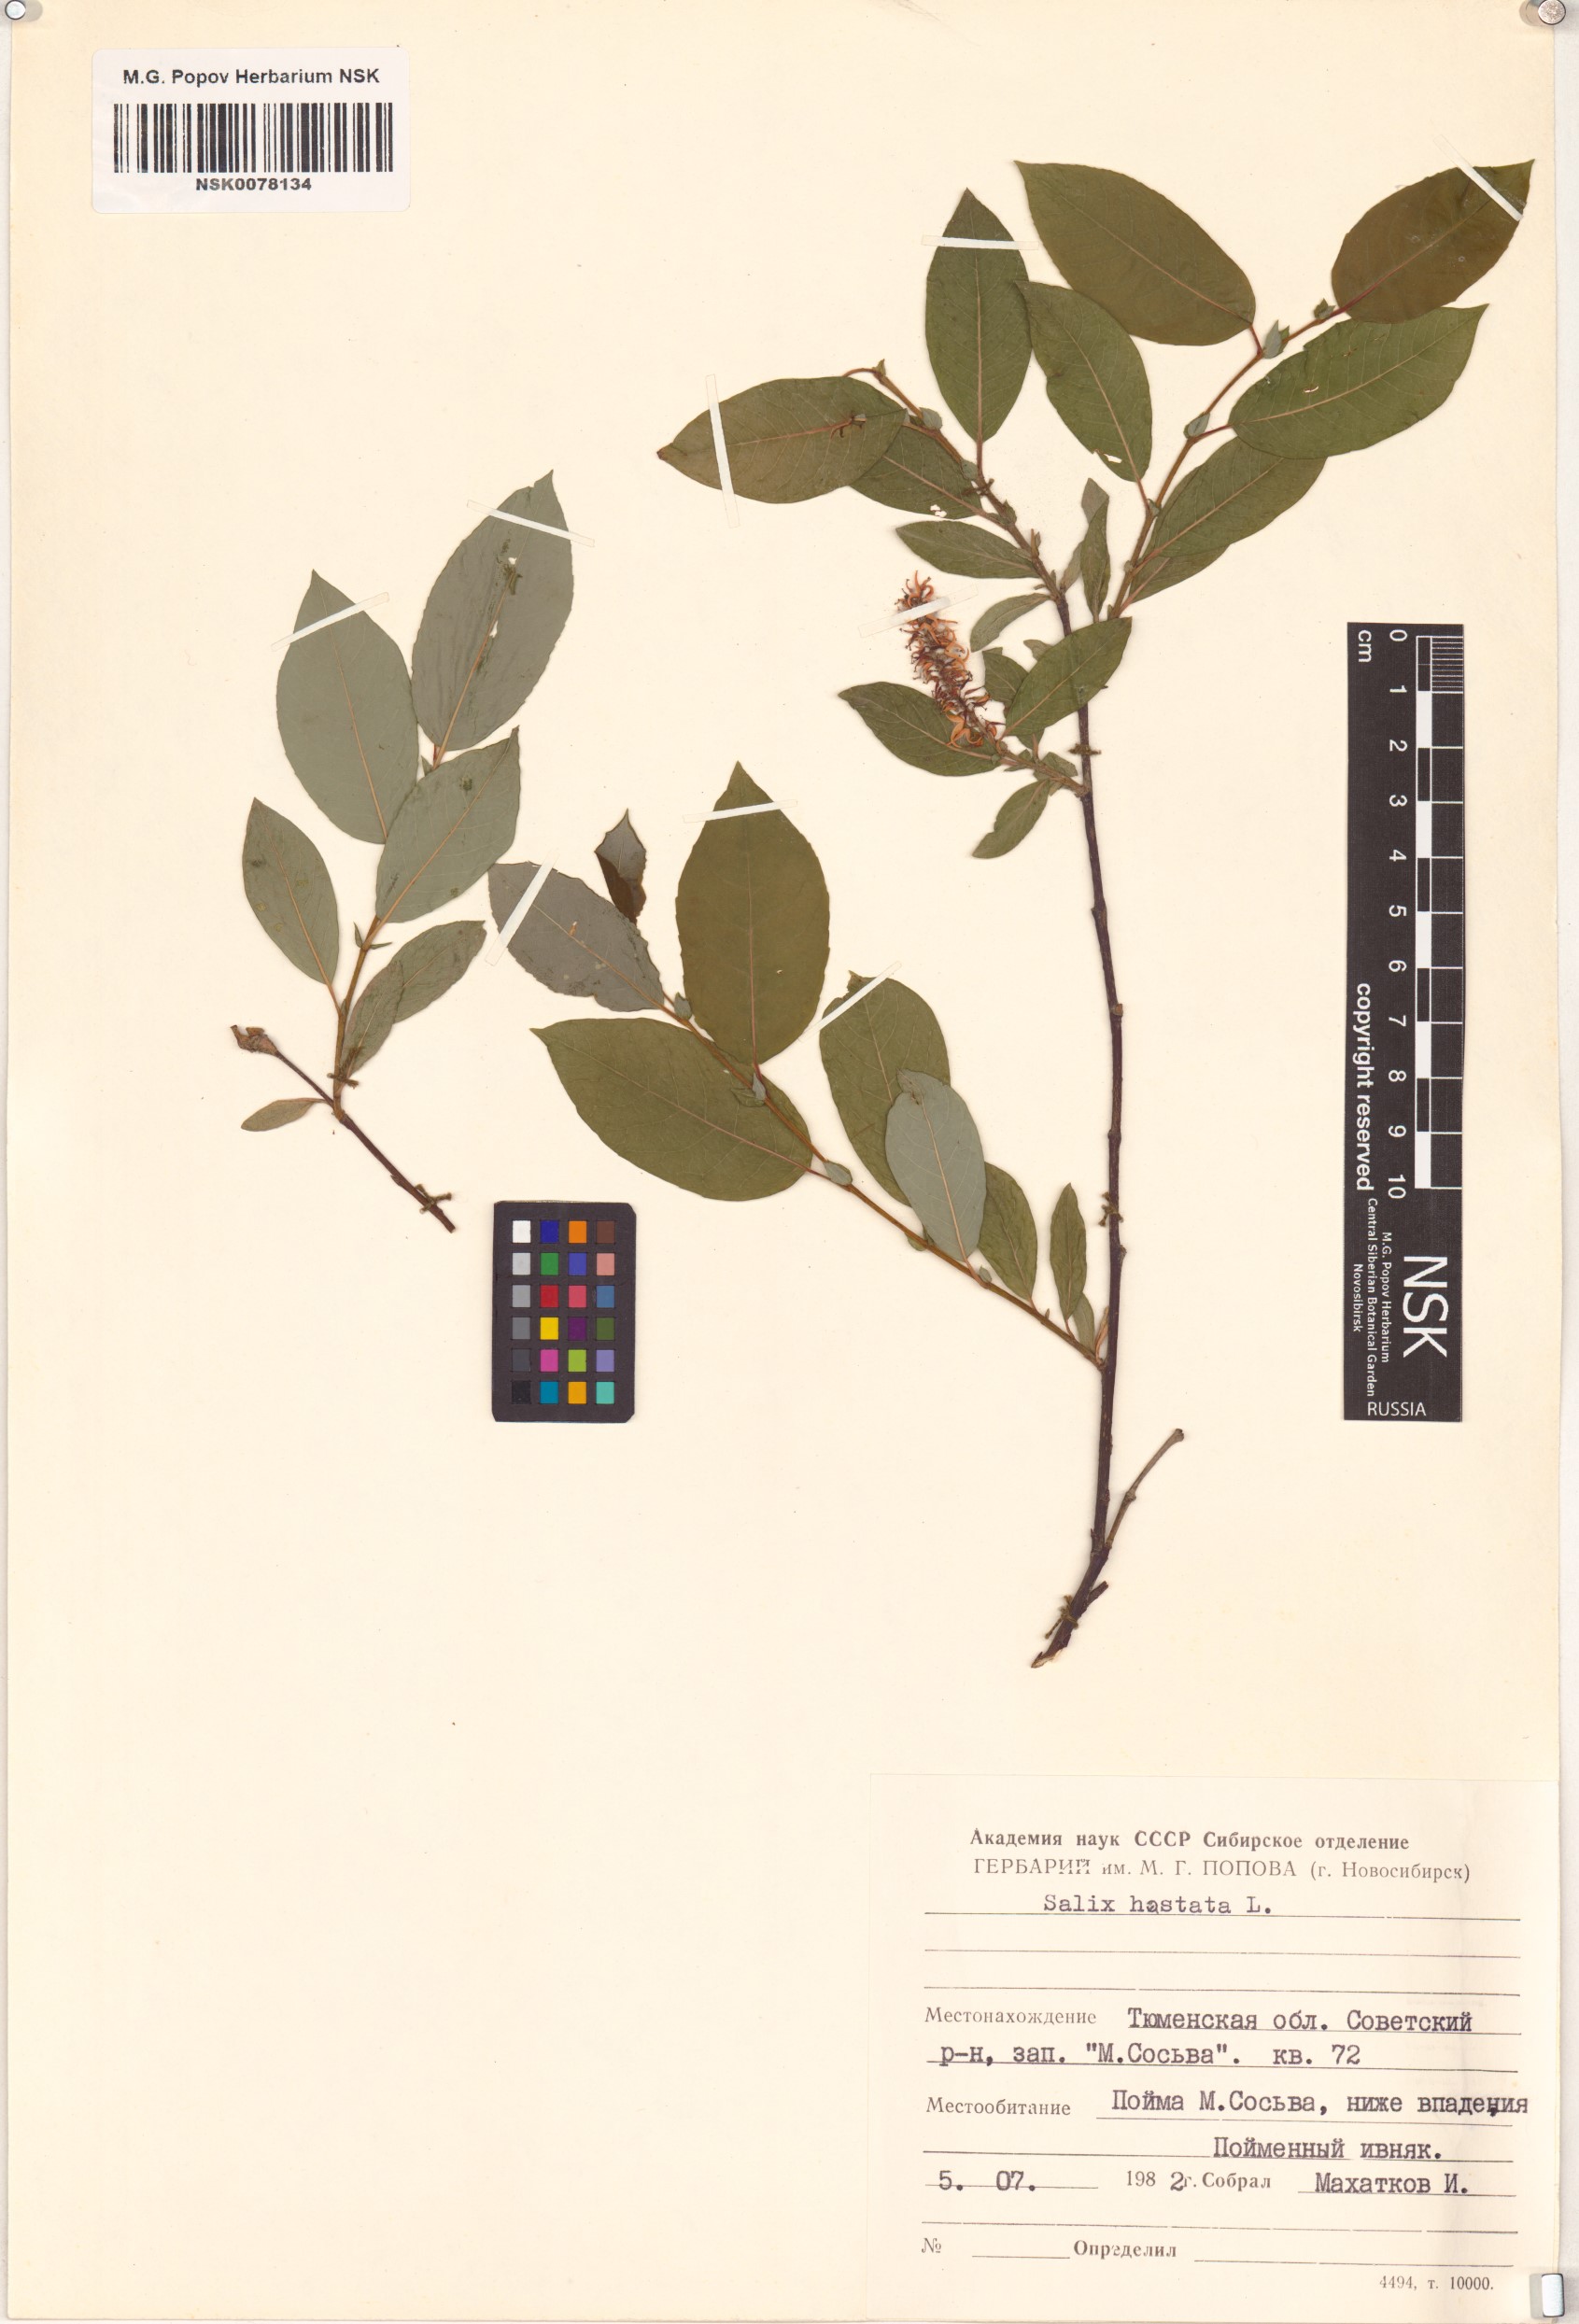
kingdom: Plantae
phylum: Tracheophyta
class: Magnoliopsida
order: Malpighiales
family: Salicaceae
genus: Salix
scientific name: Salix hastata
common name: Halberd willow
